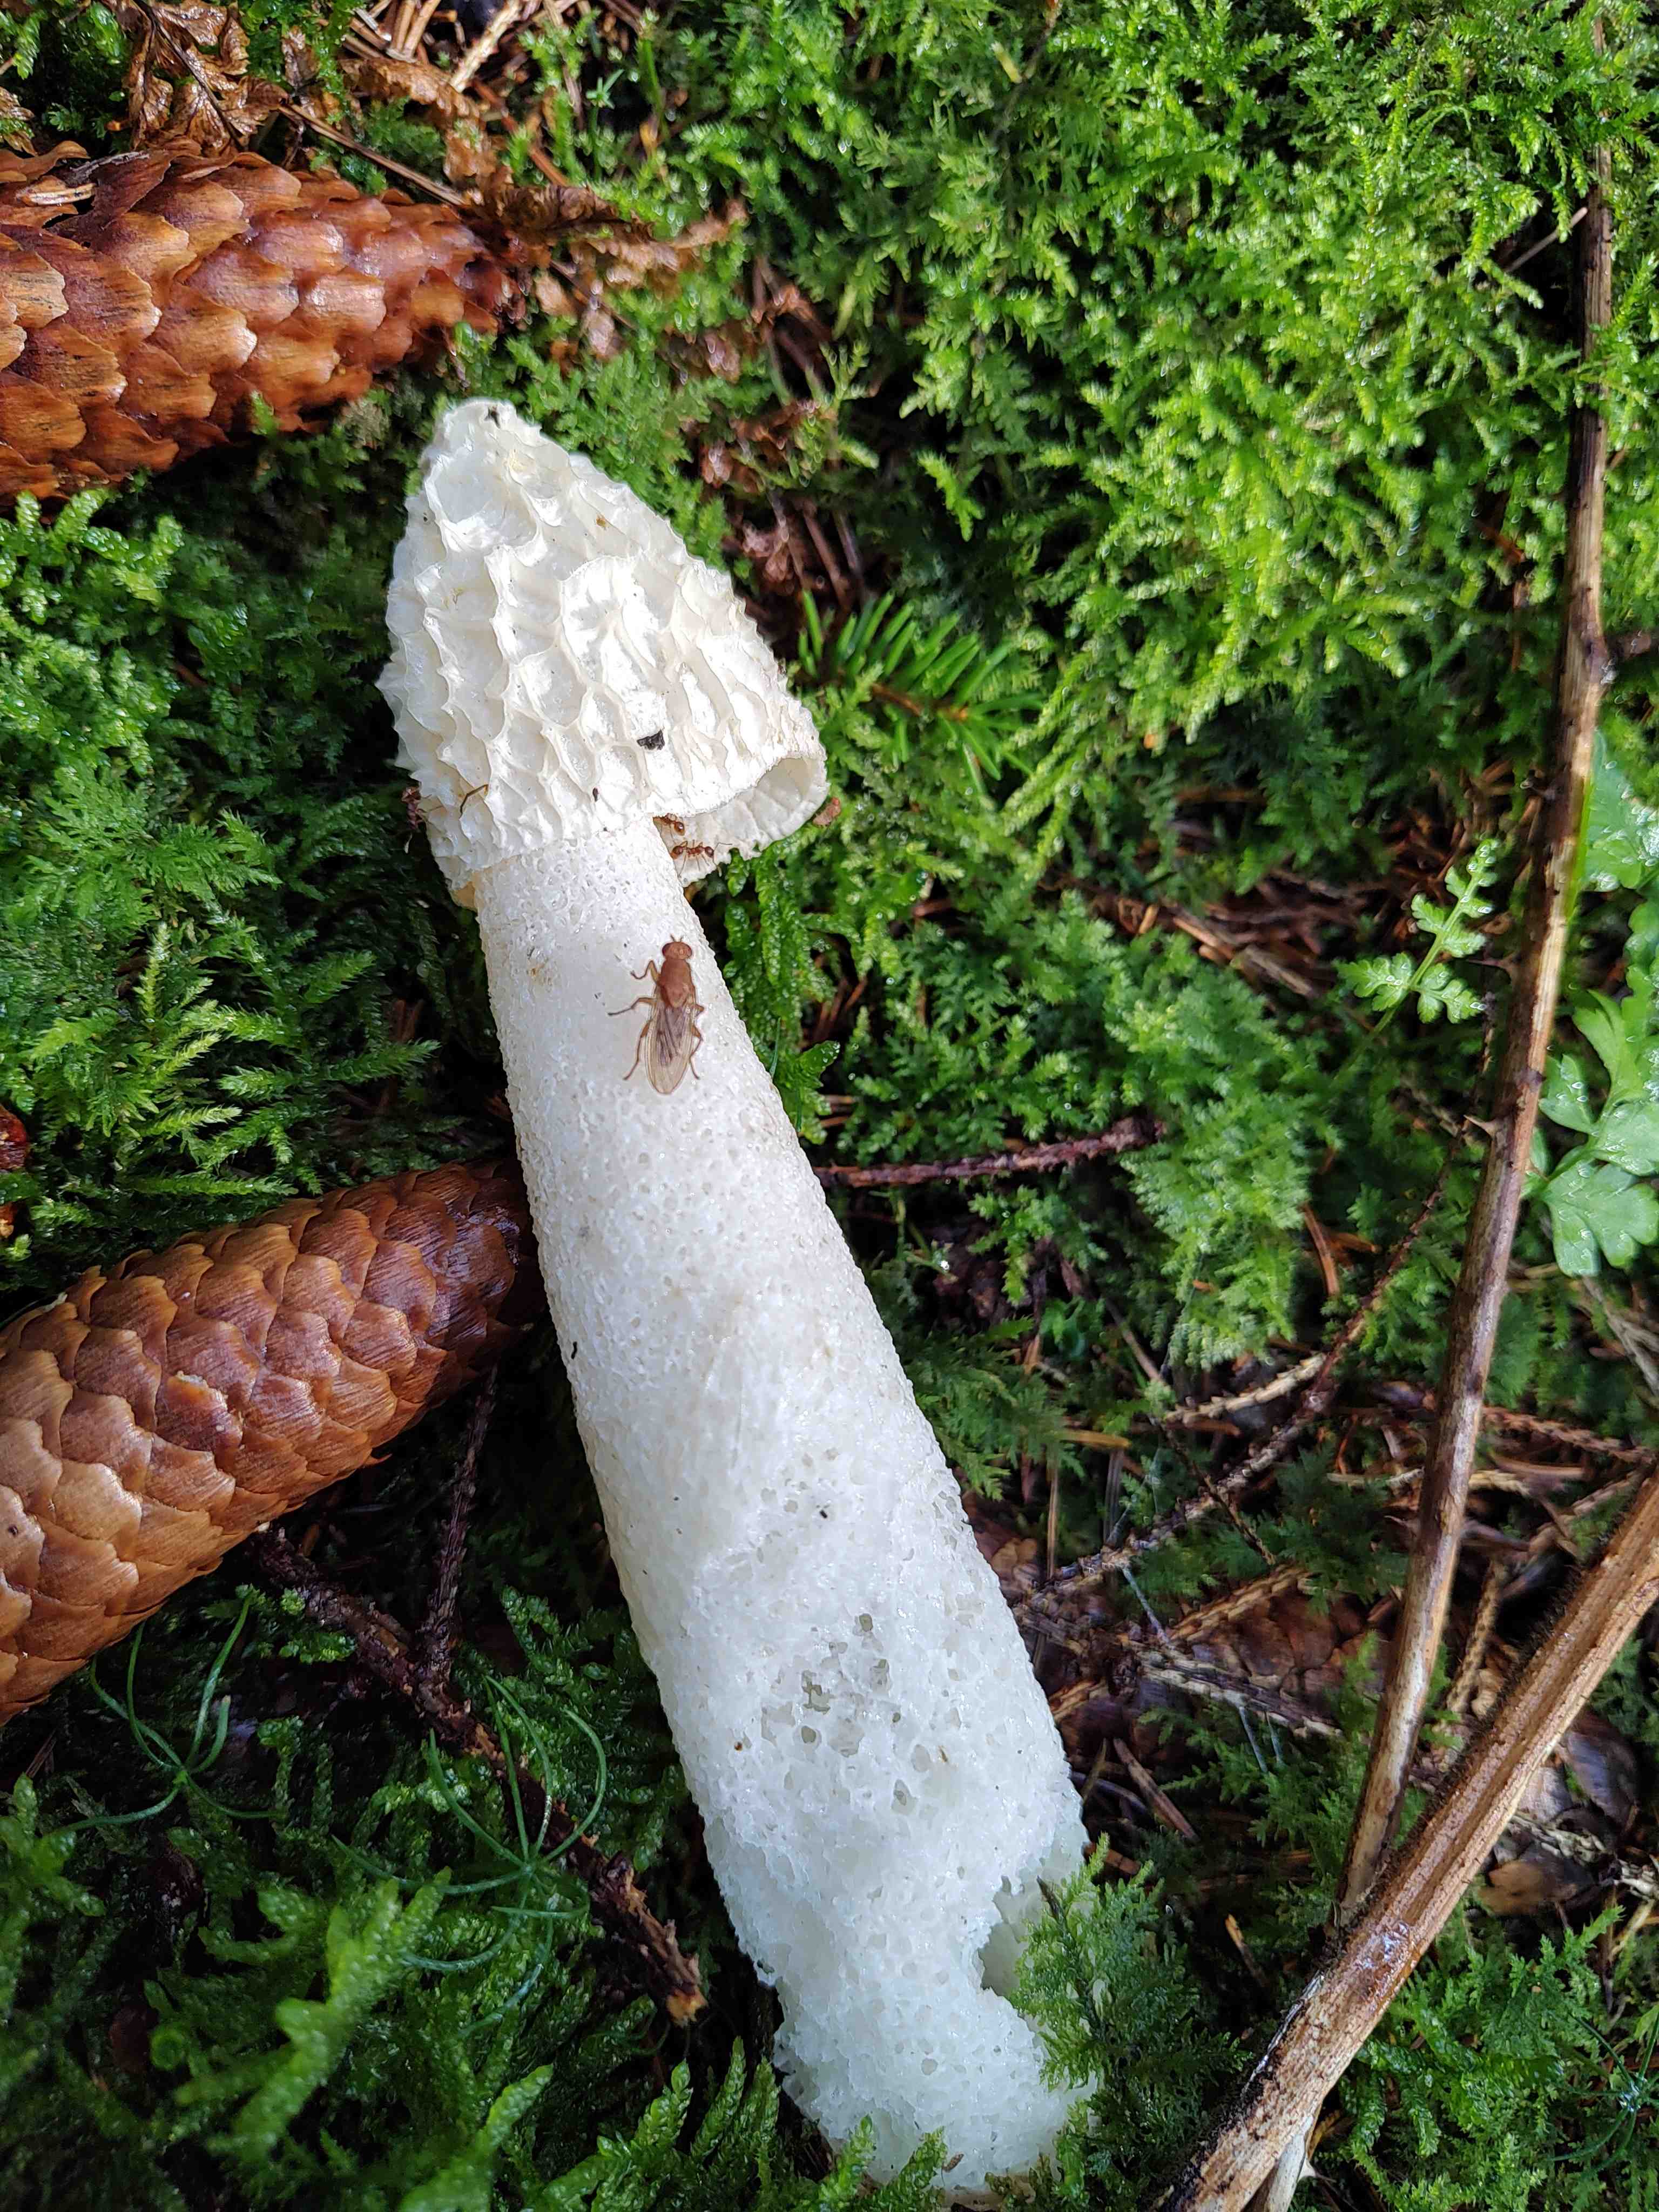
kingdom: Fungi
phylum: Basidiomycota
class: Agaricomycetes
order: Phallales
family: Phallaceae
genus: Phallus
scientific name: Phallus impudicus
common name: almindelig stinksvamp
